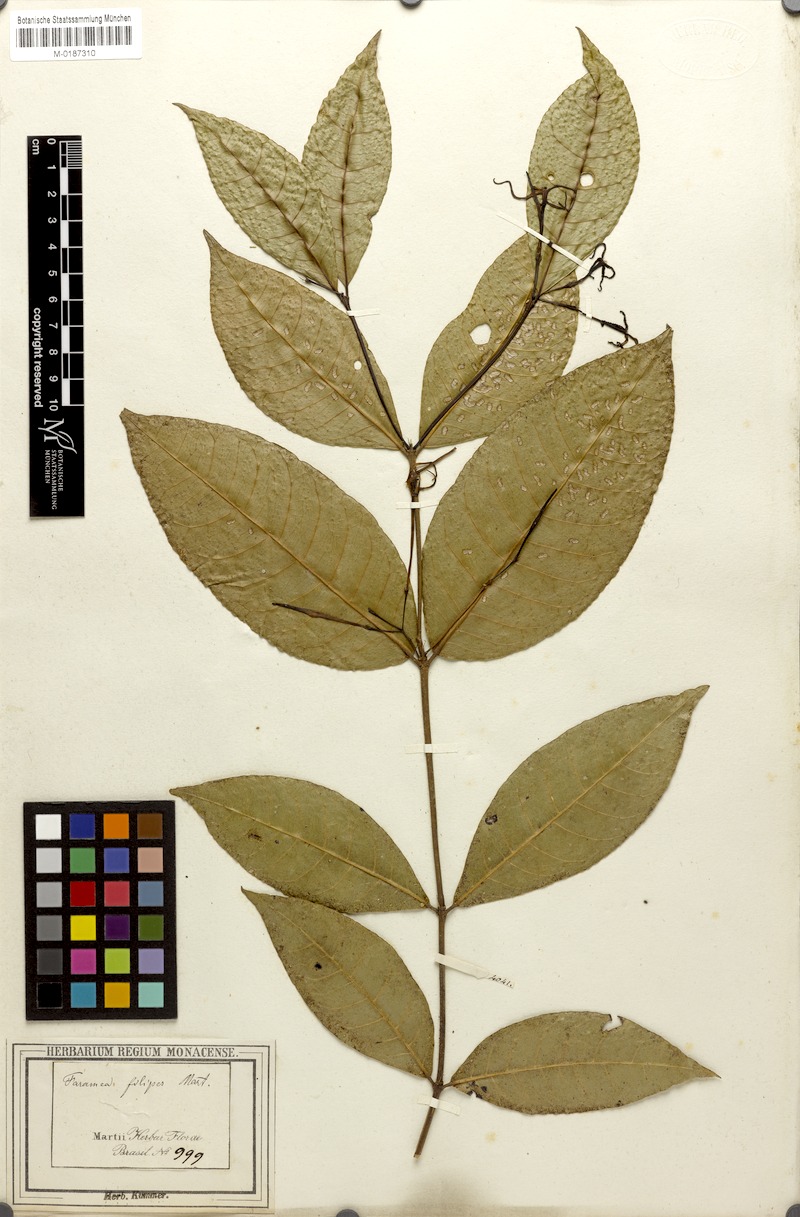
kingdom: Plantae
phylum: Tracheophyta
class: Magnoliopsida
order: Gentianales
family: Rubiaceae
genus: Faramea
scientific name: Faramea coerulea
